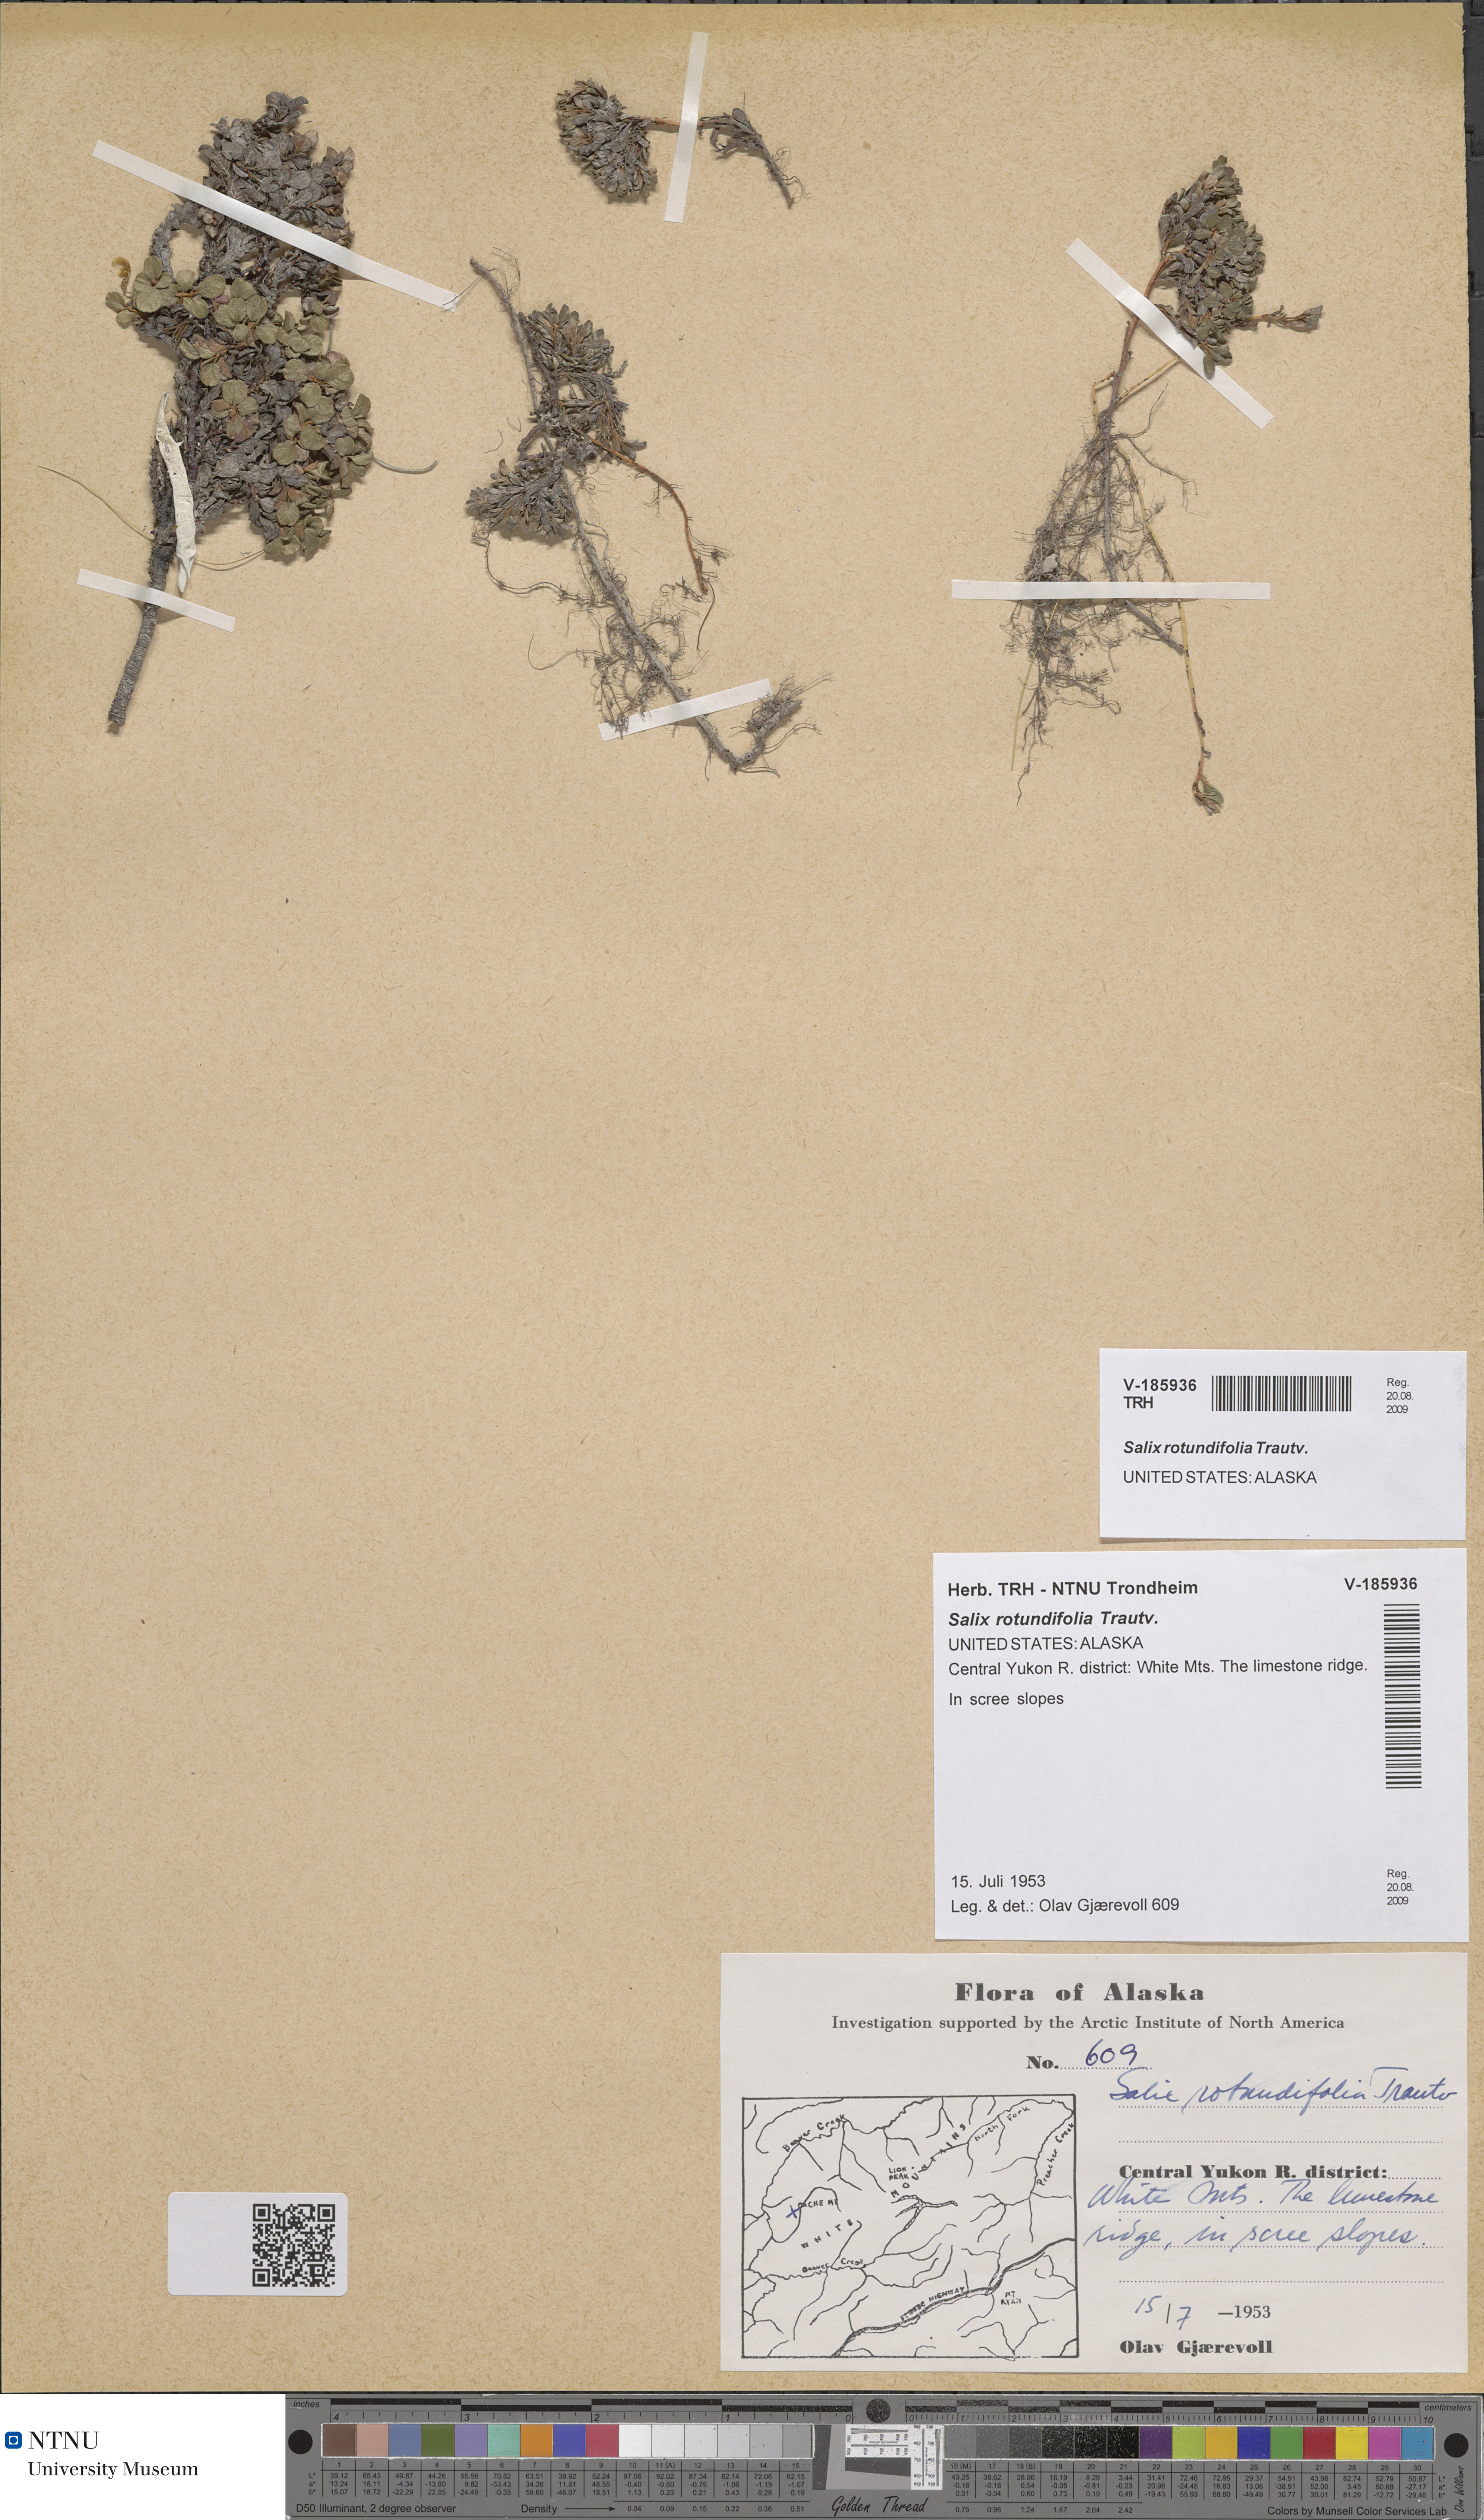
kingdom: Plantae
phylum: Tracheophyta
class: Magnoliopsida
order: Malpighiales
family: Salicaceae
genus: Salix
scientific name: Salix rotundifolia
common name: Least willow
